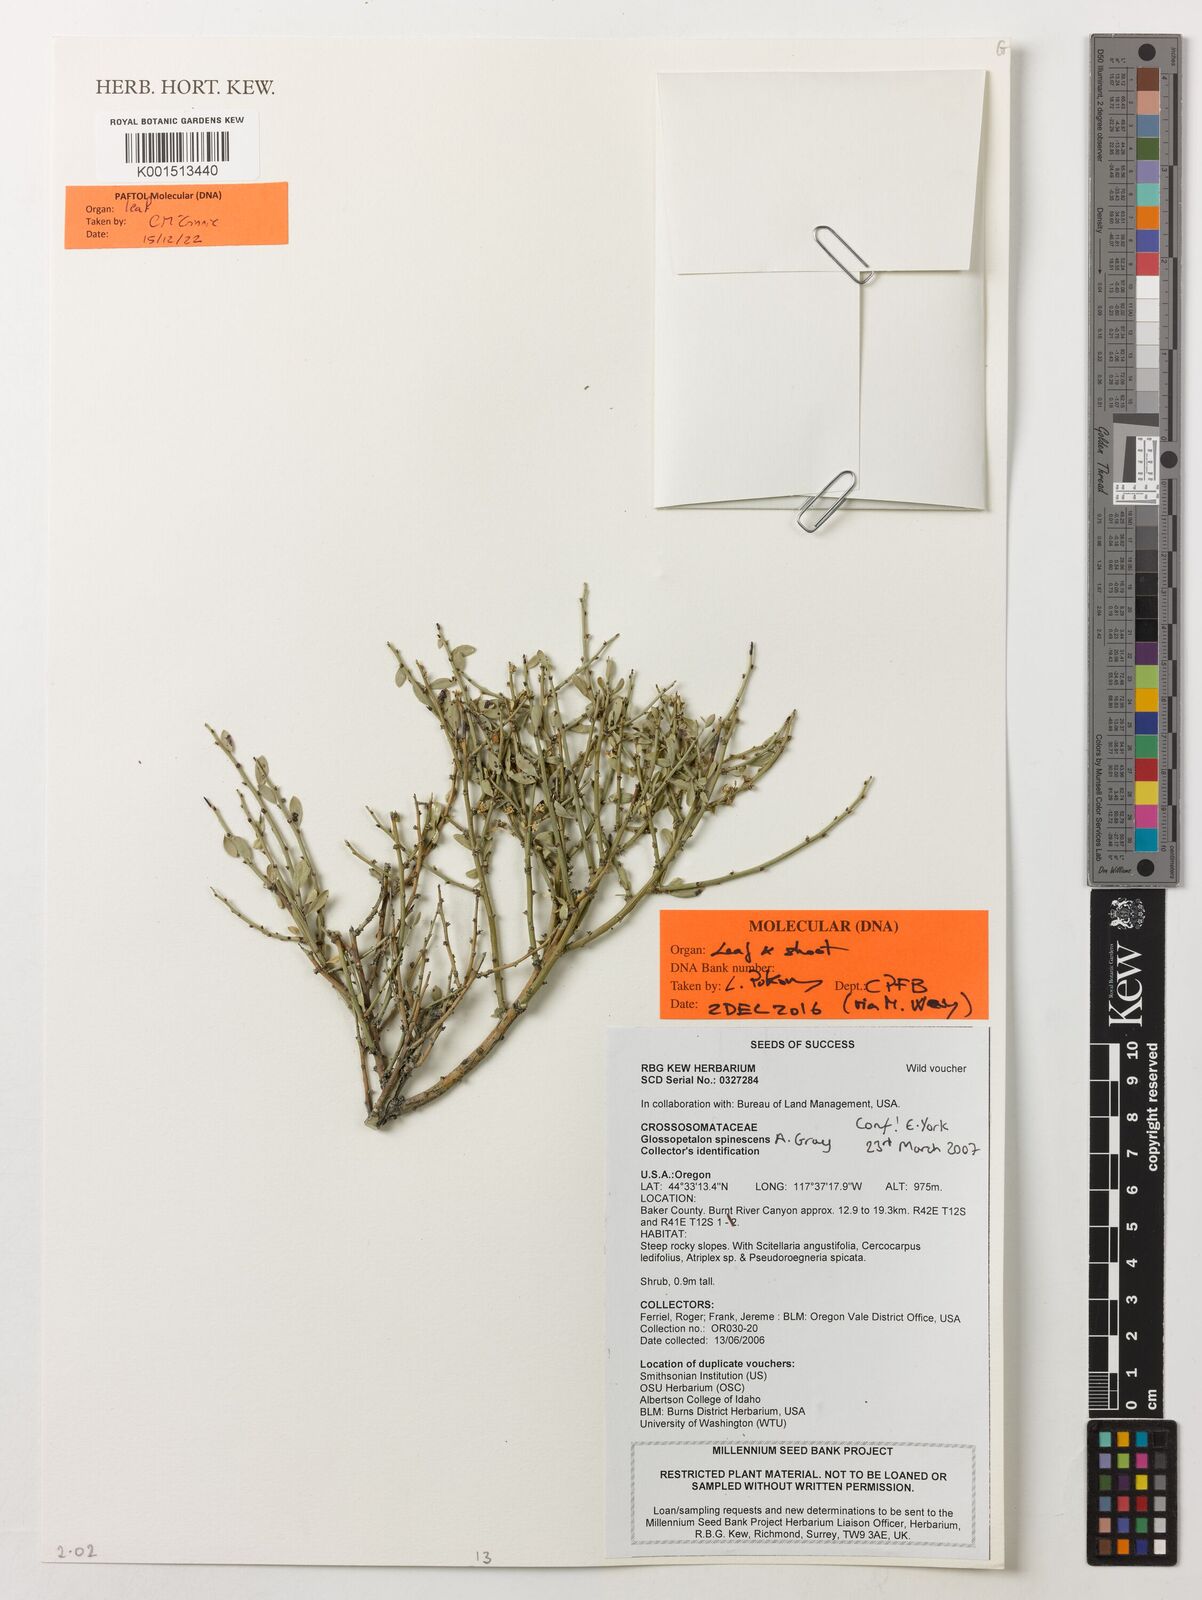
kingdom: Plantae
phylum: Tracheophyta
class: Magnoliopsida
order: Crossosomatales
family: Crossosomataceae
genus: Glossopetalon
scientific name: Glossopetalon spinescens
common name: Spring greasebush
